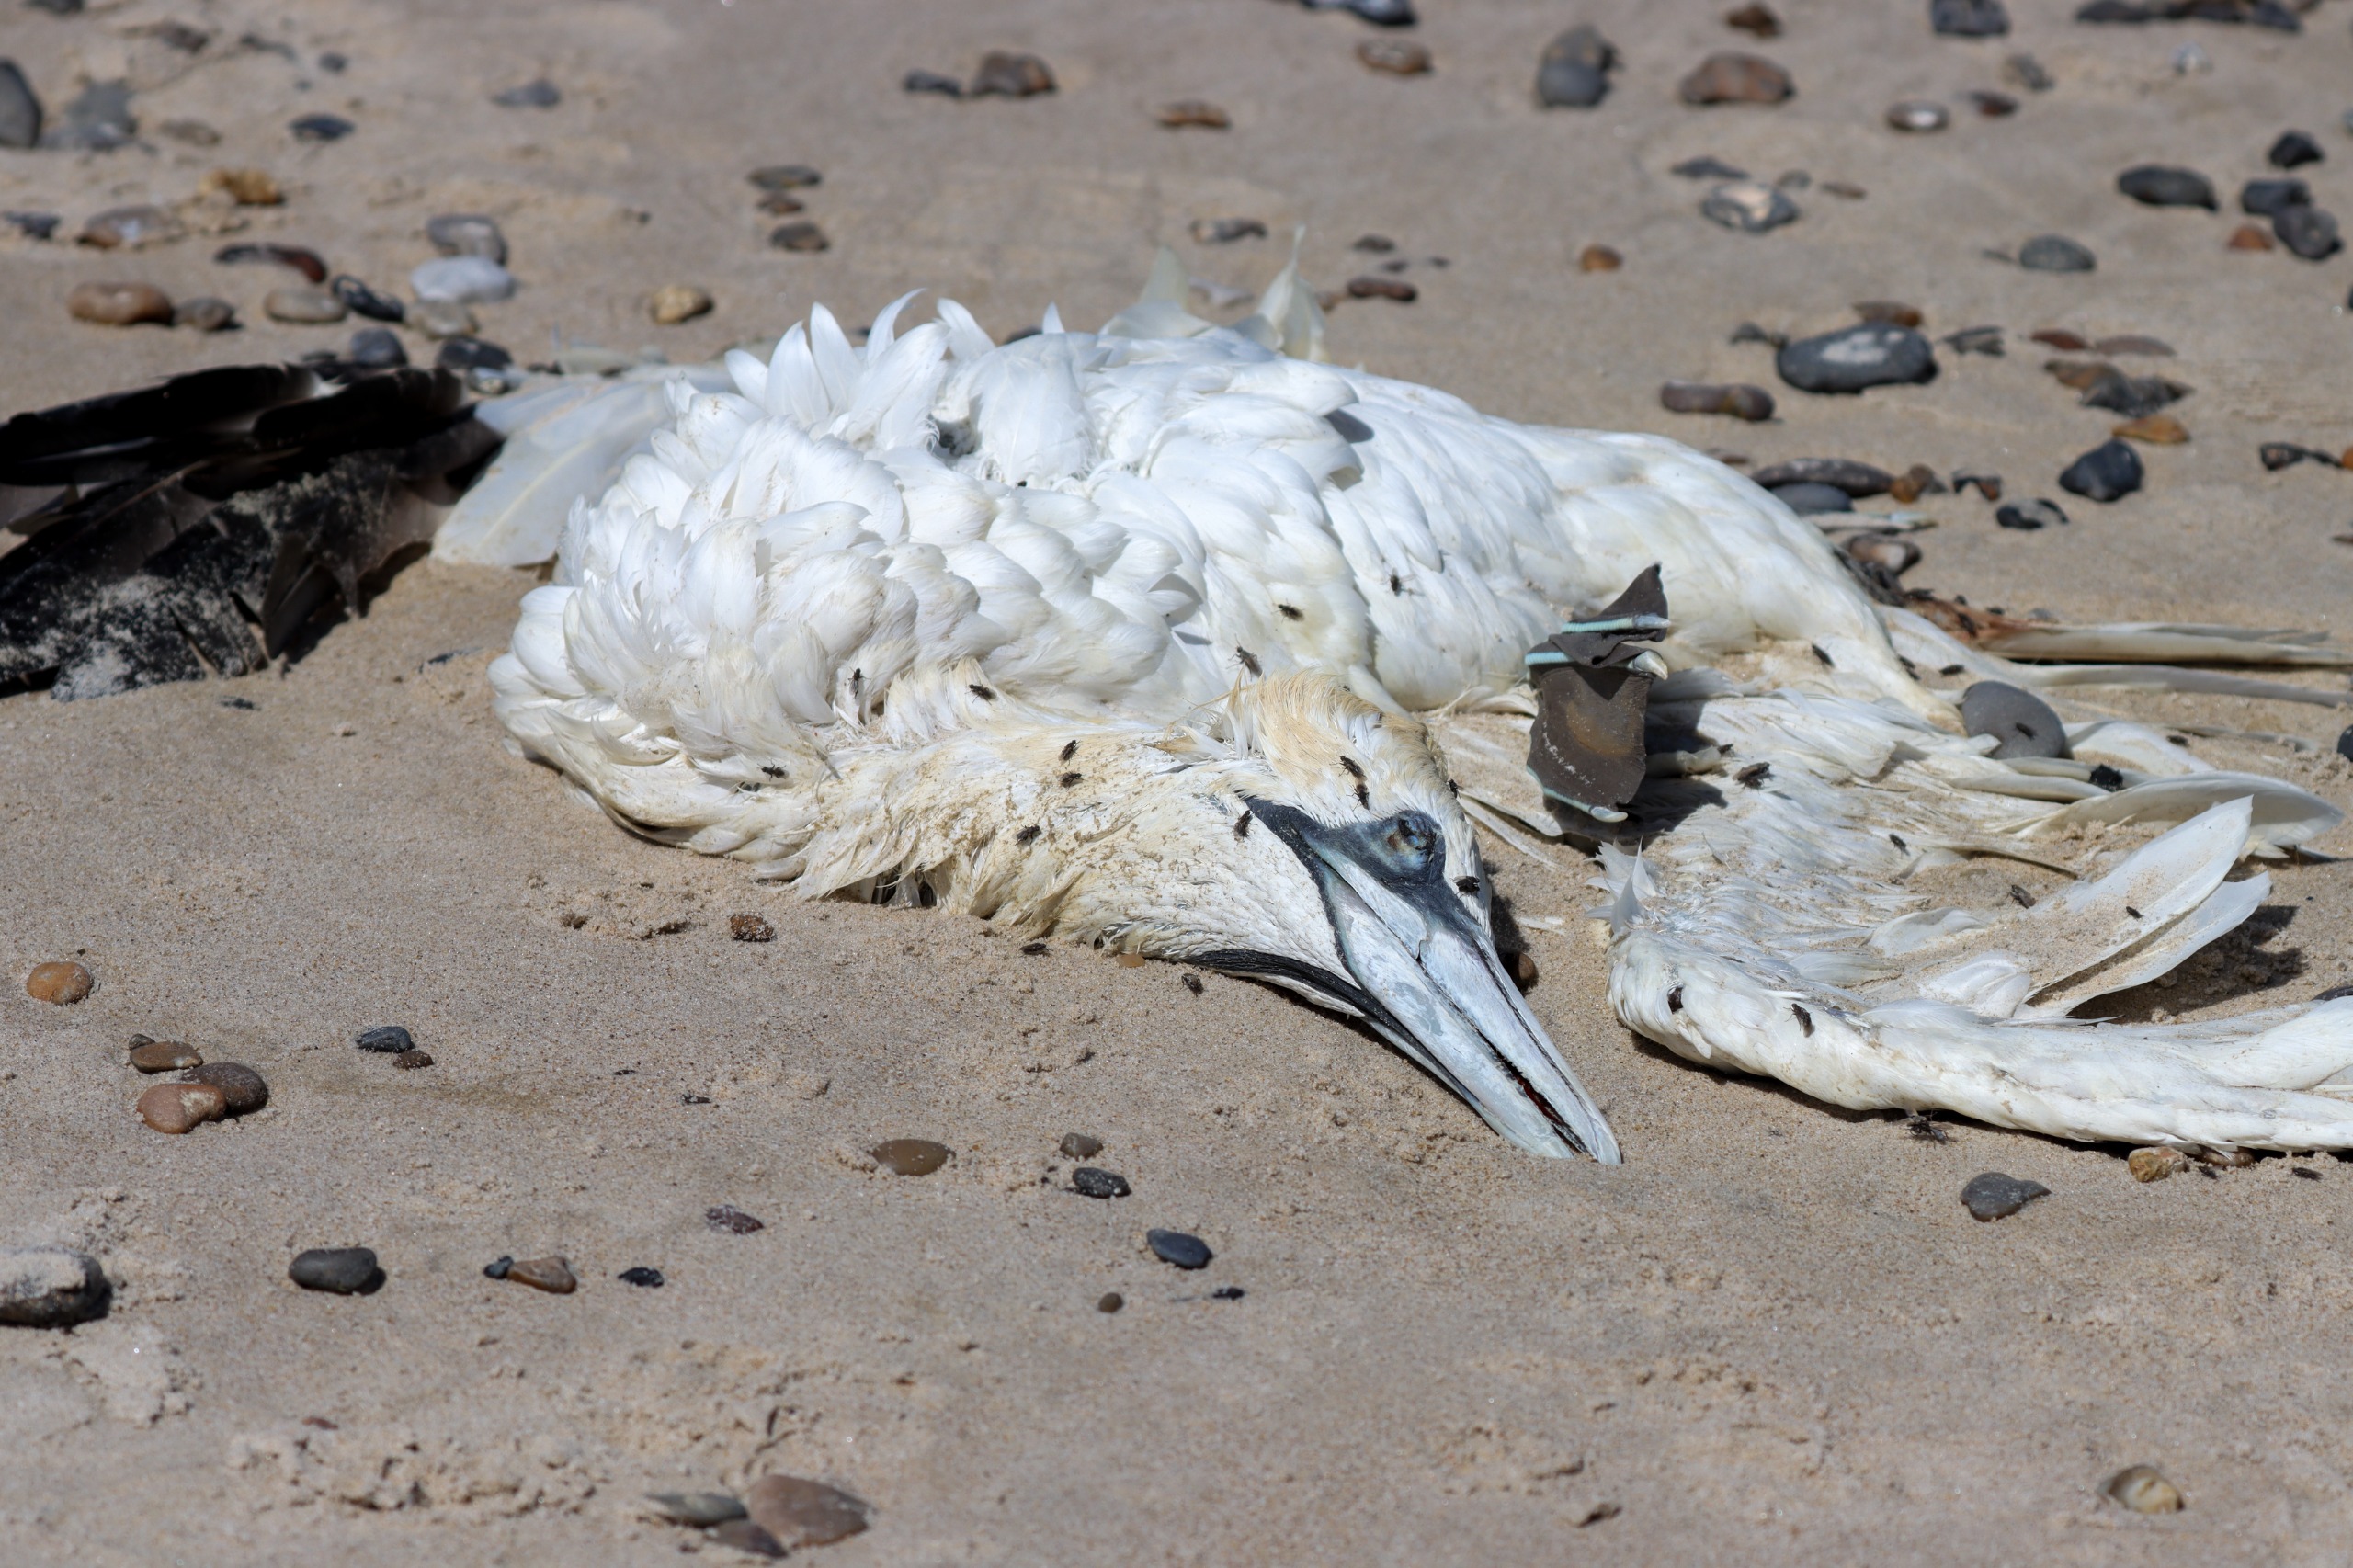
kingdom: Animalia
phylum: Chordata
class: Aves
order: Suliformes
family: Sulidae
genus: Morus
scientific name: Morus bassanus
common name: Sule
